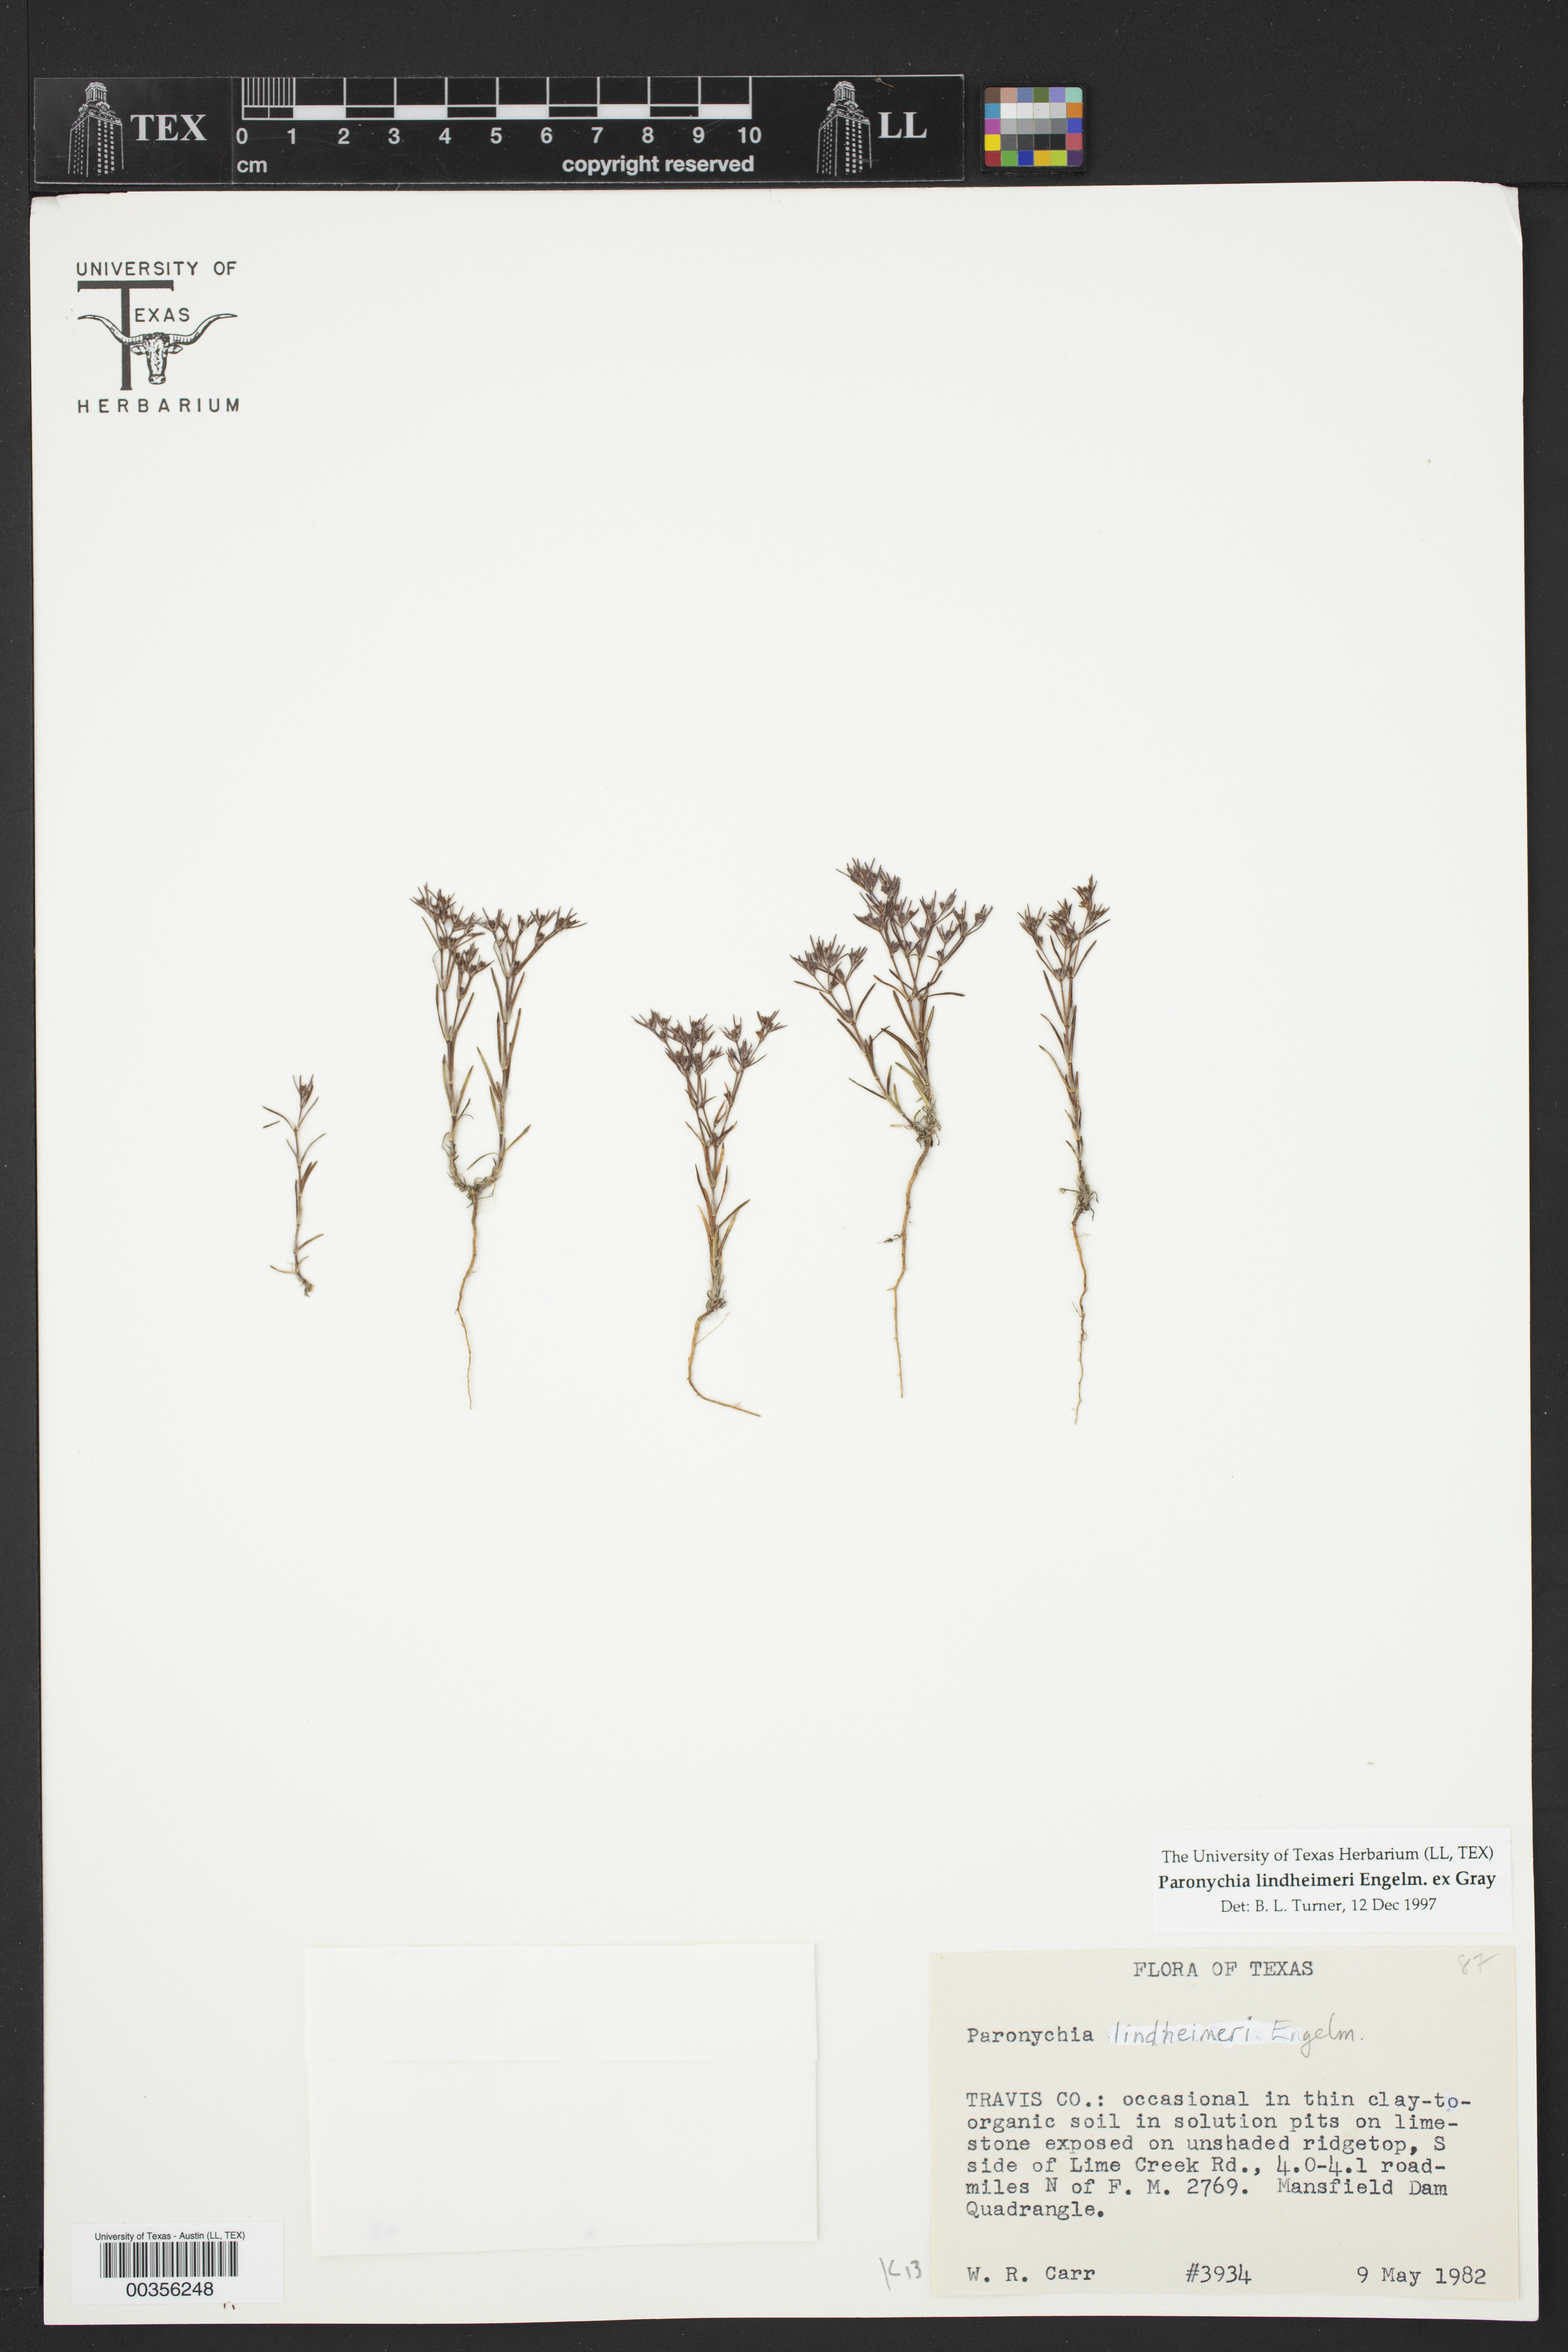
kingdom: Plantae
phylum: Tracheophyta
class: Magnoliopsida
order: Caryophyllales
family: Caryophyllaceae
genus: Paronychia
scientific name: Paronychia lindheimeri
